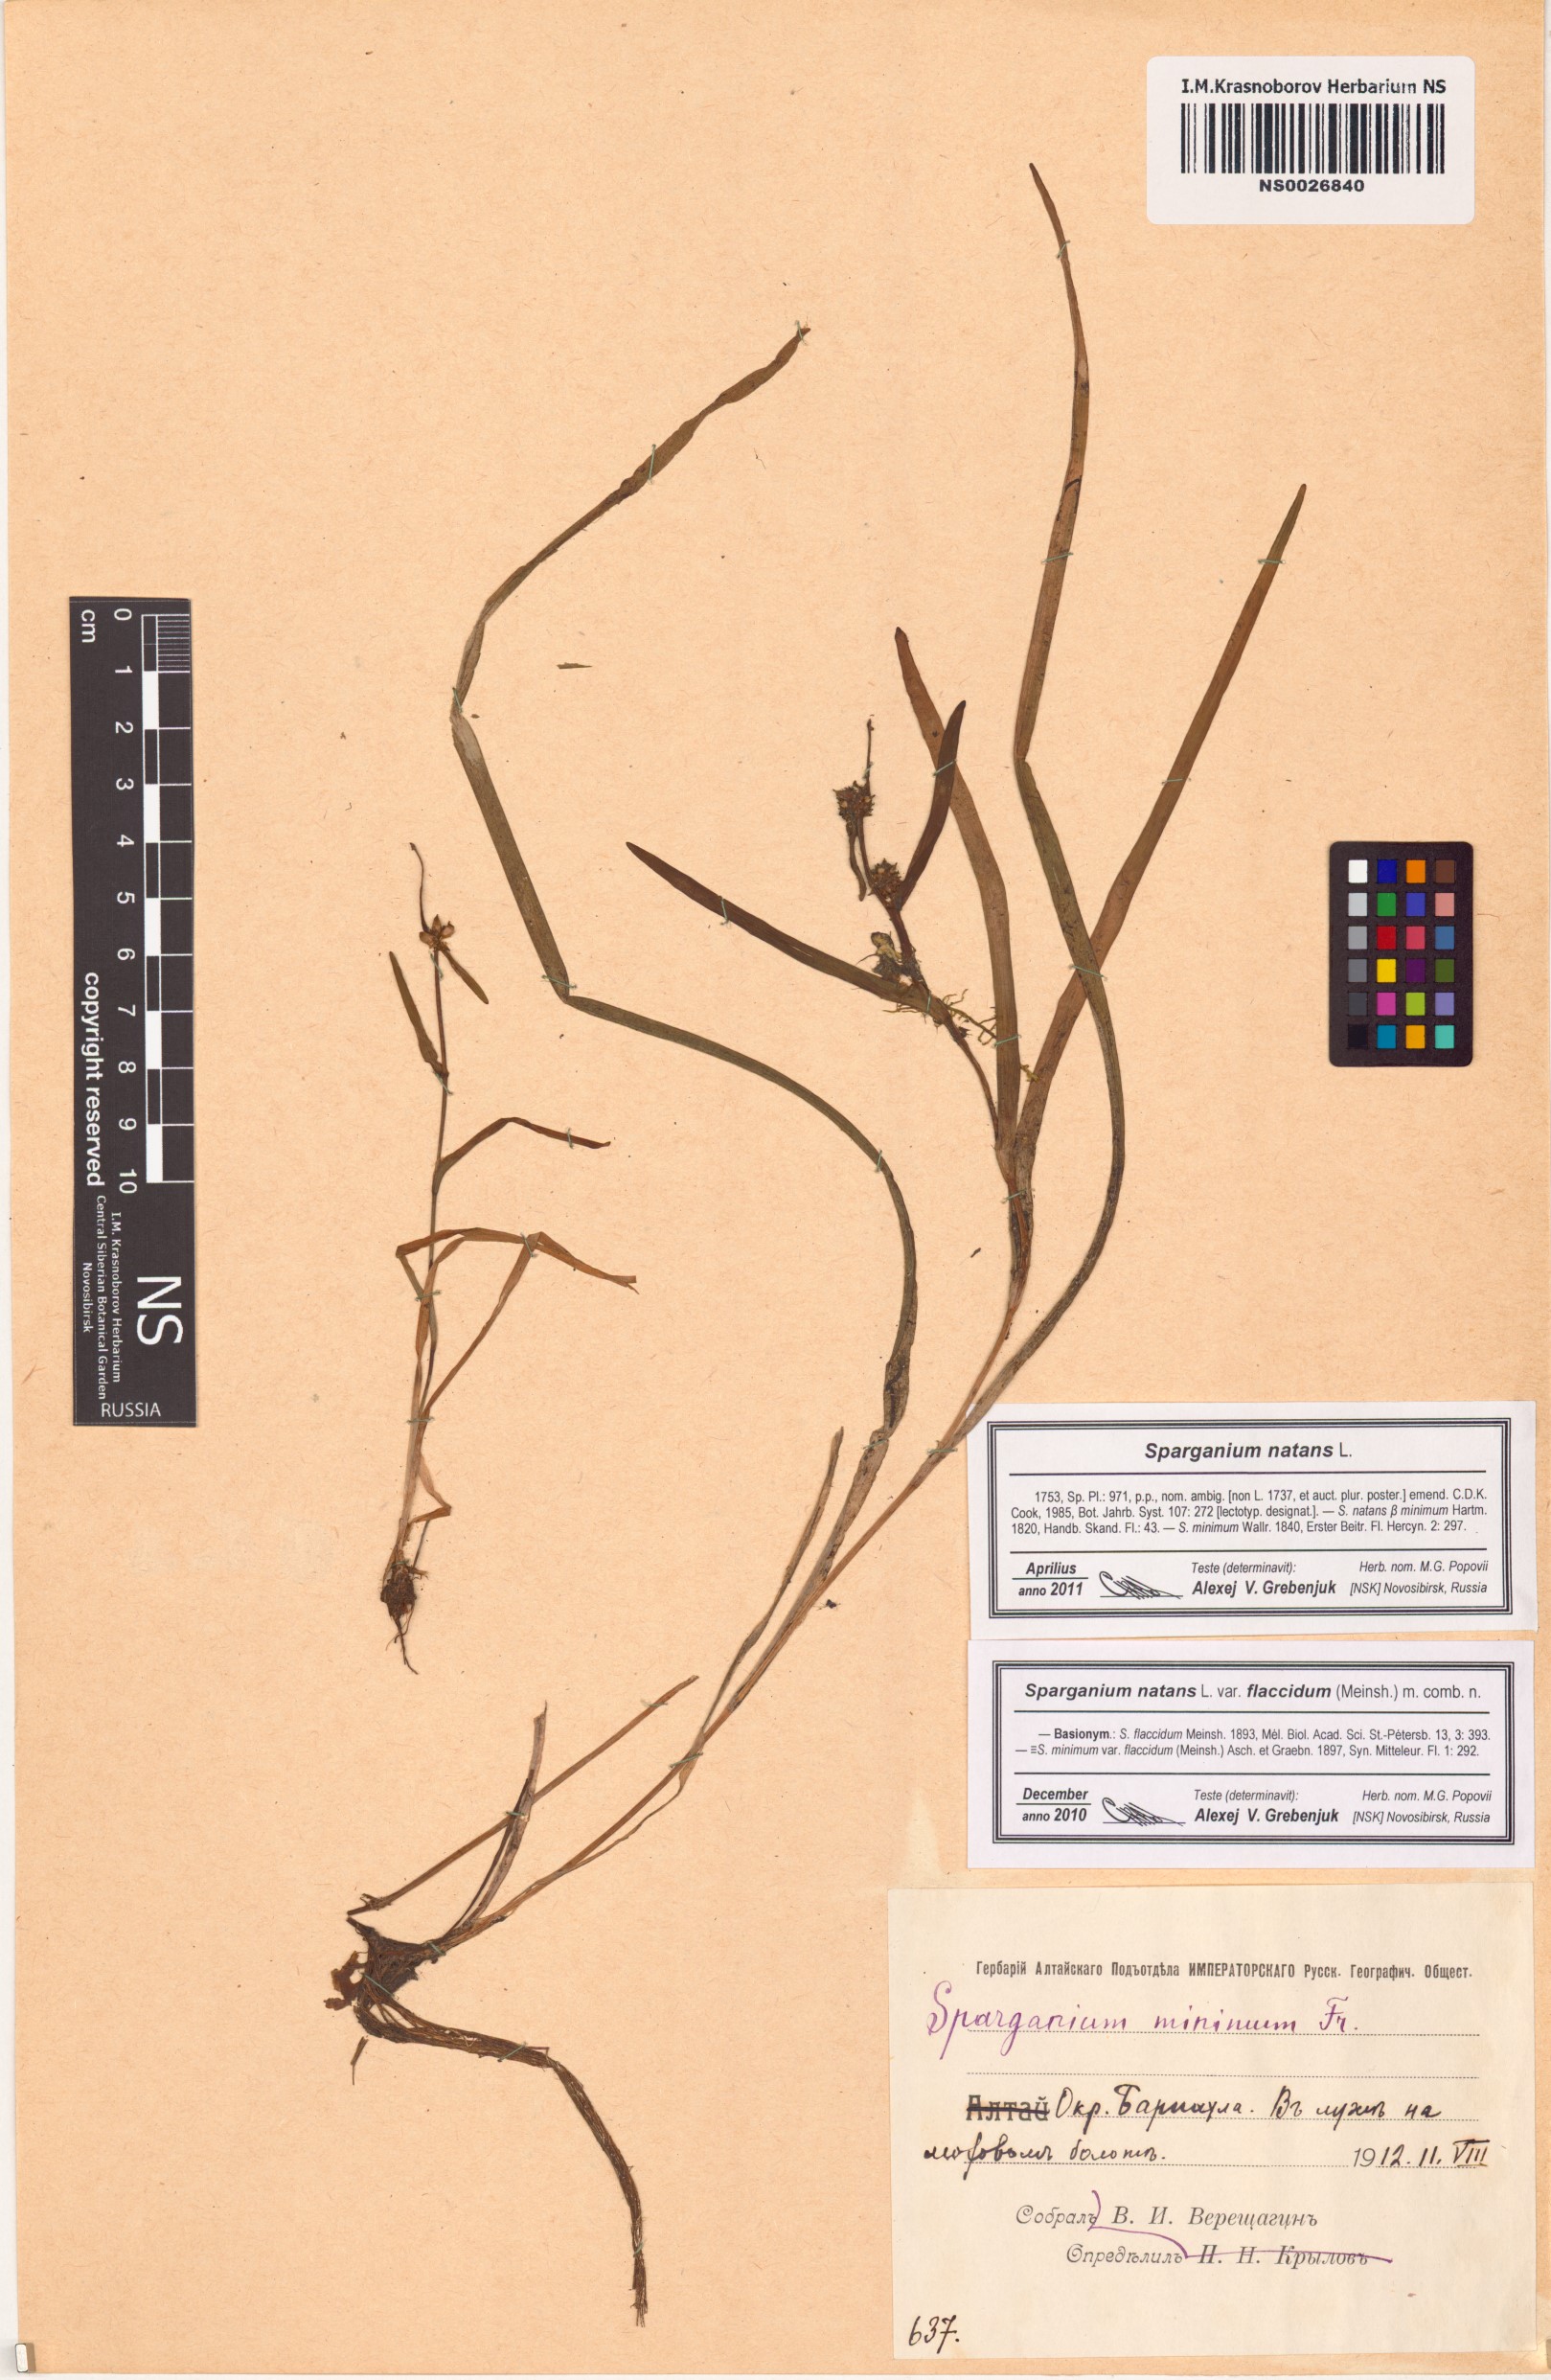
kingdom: Plantae
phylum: Tracheophyta
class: Liliopsida
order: Poales
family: Typhaceae
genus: Sparganium
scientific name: Sparganium natans
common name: Least bur-reed
